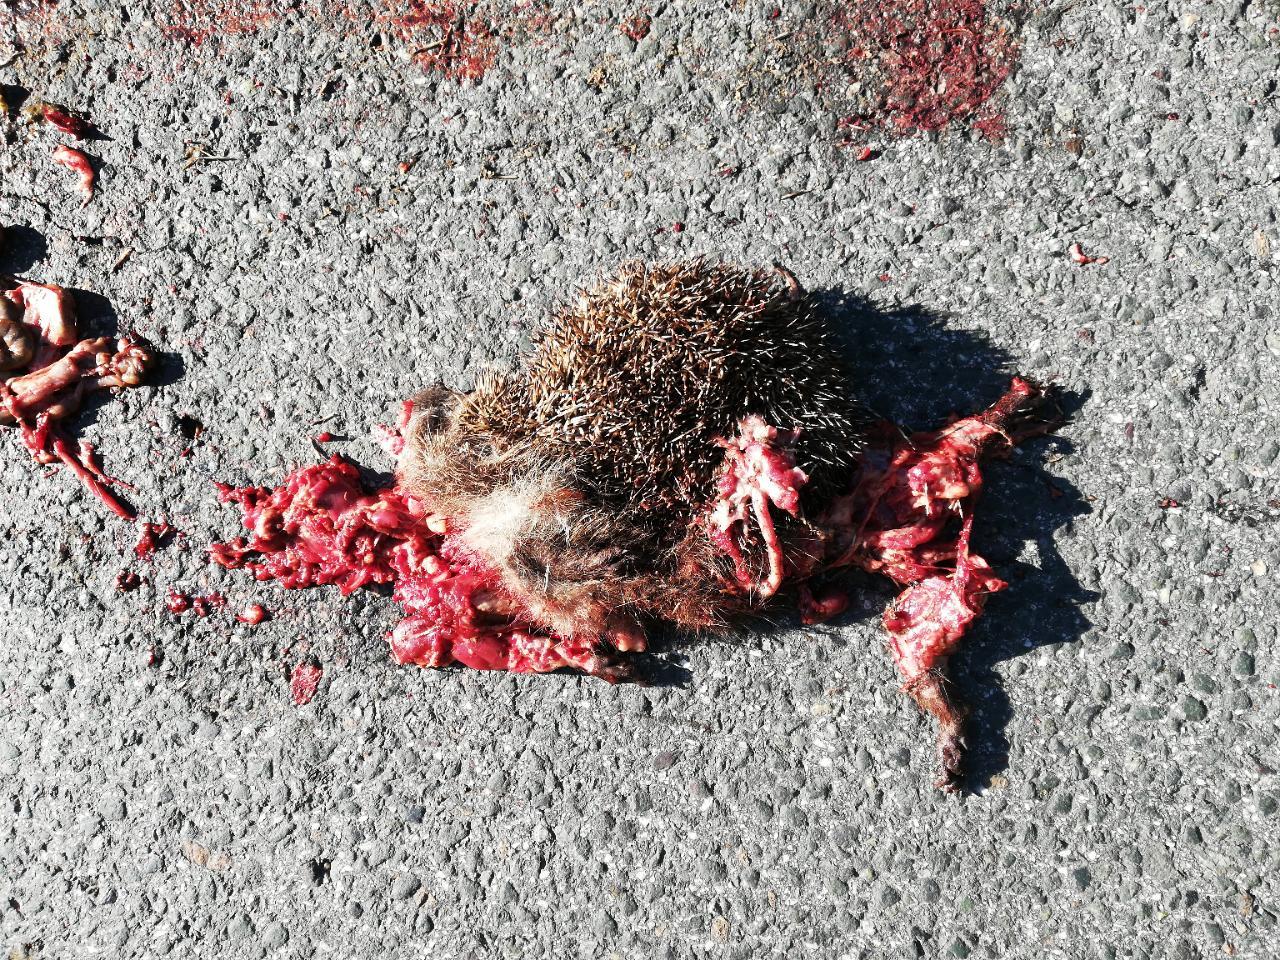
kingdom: Animalia
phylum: Chordata
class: Mammalia
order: Erinaceomorpha
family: Erinaceidae
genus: Erinaceus
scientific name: Erinaceus
